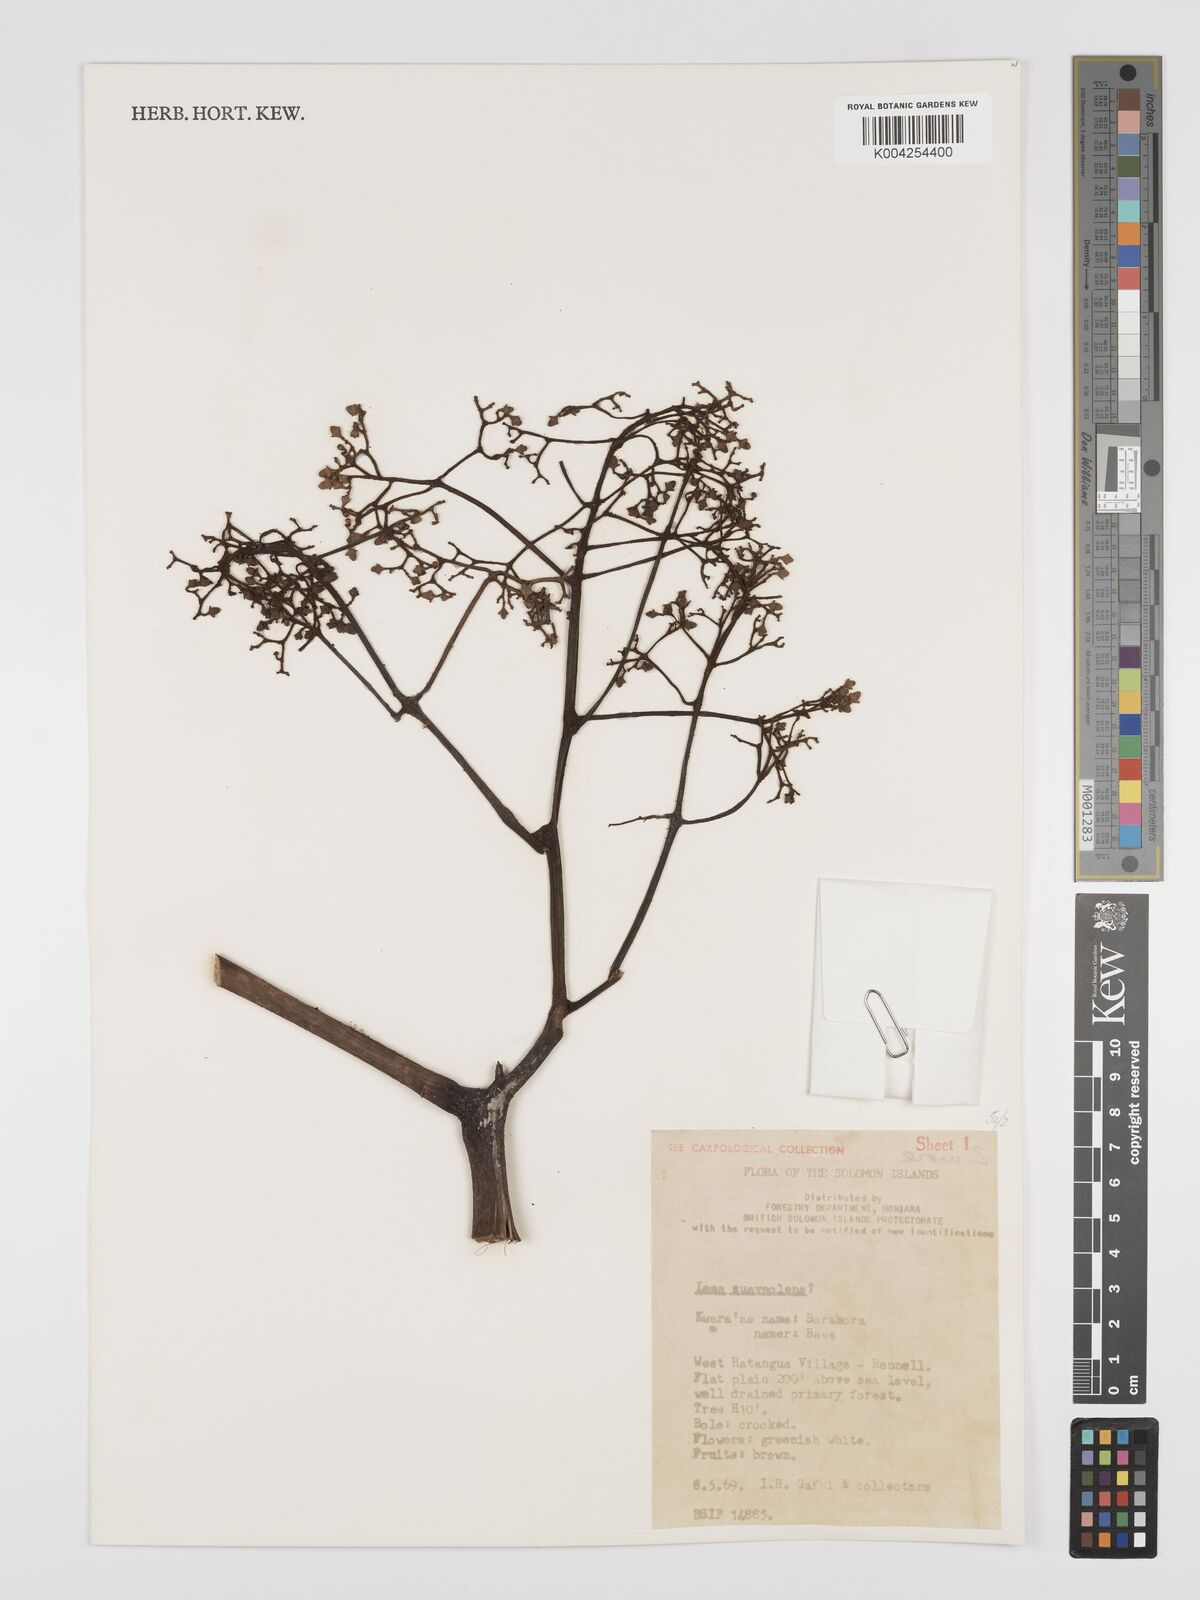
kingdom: Plantae
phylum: Tracheophyta
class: Magnoliopsida
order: Vitales
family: Vitaceae
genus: Leea
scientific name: Leea tetramera
